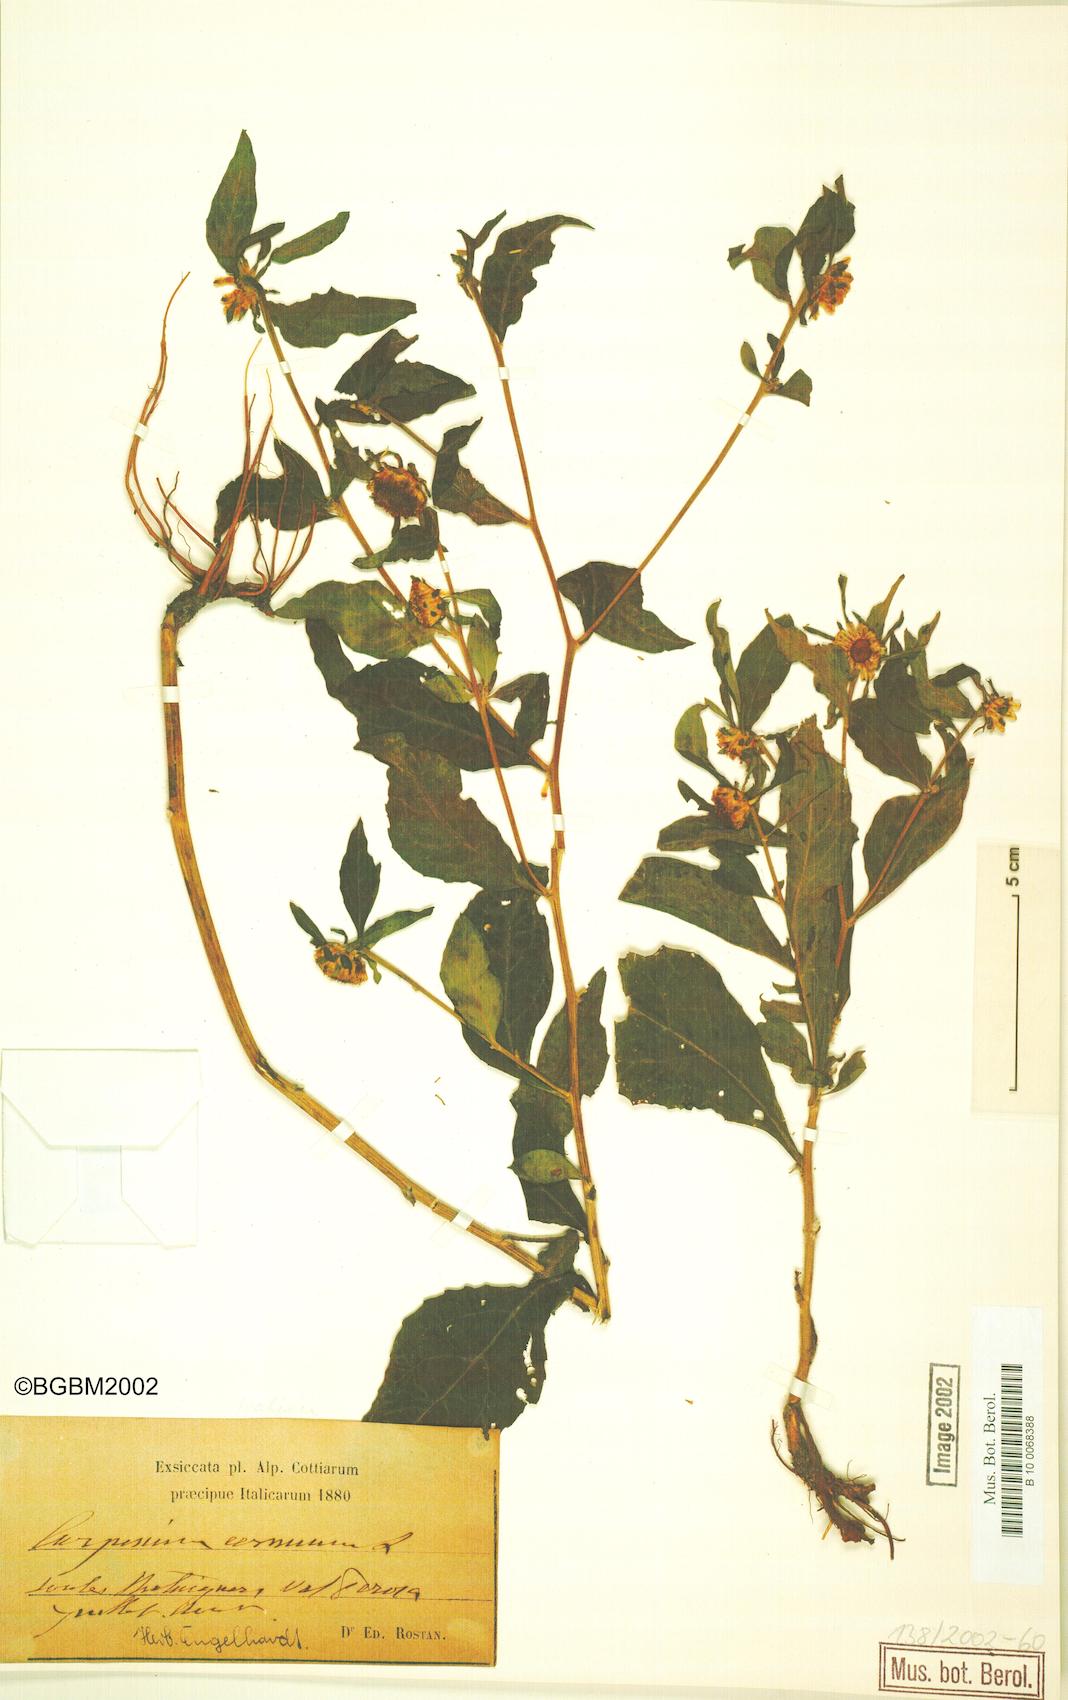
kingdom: Plantae
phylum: Tracheophyta
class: Magnoliopsida
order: Asterales
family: Asteraceae
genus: Carpesium
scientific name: Carpesium cernuum
